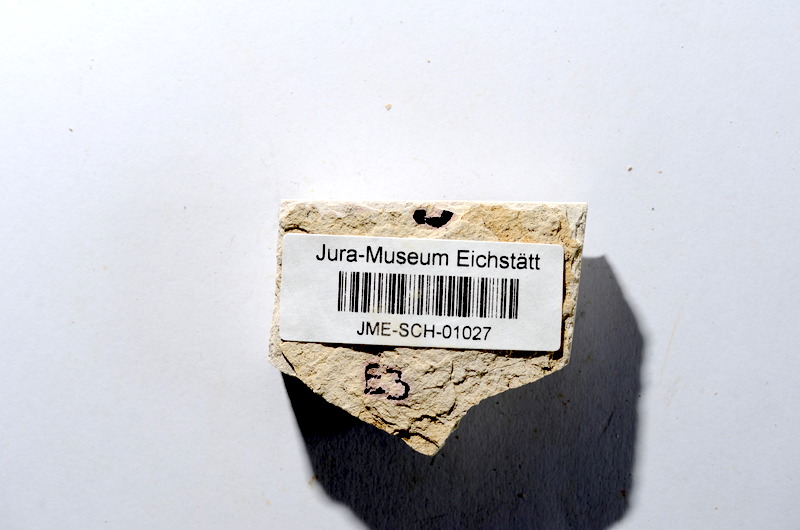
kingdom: Animalia
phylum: Chordata
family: Ascalaboidae
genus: Tharsis
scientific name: Tharsis dubius
